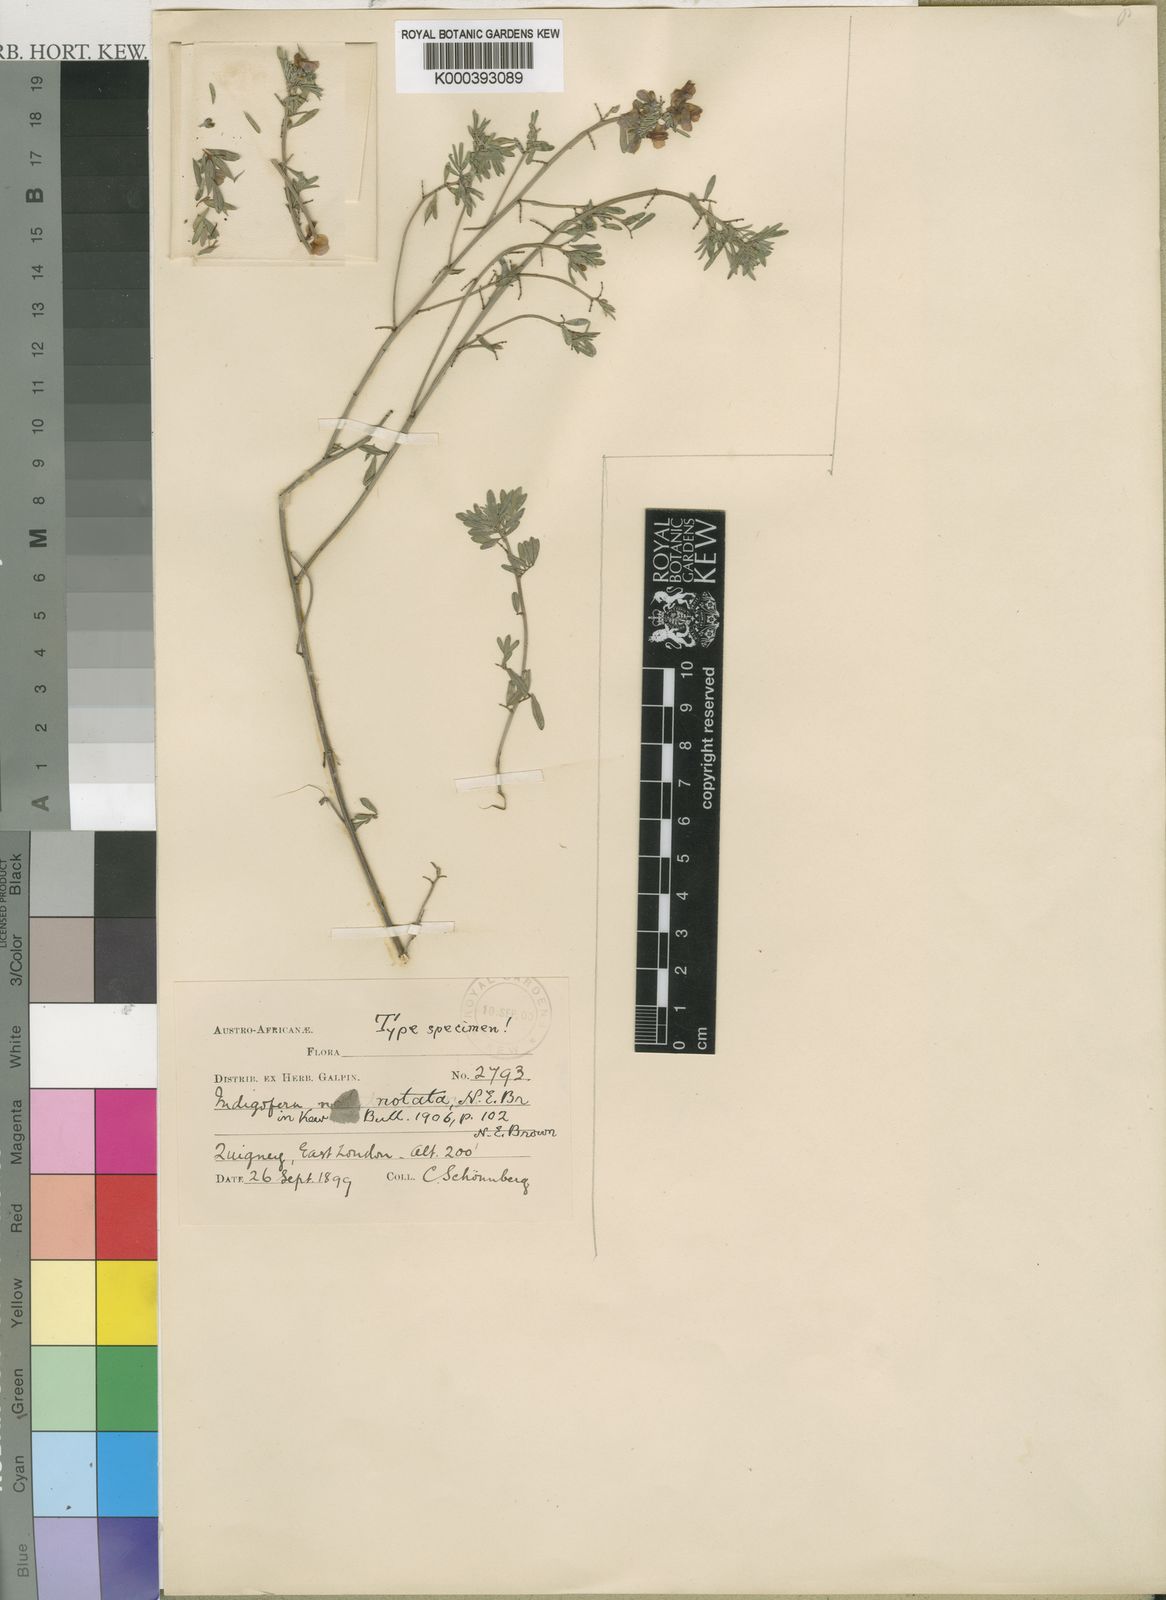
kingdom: Plantae
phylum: Tracheophyta
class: Magnoliopsida
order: Fabales
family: Fabaceae
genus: Indigofera
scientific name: Indigofera stricta
